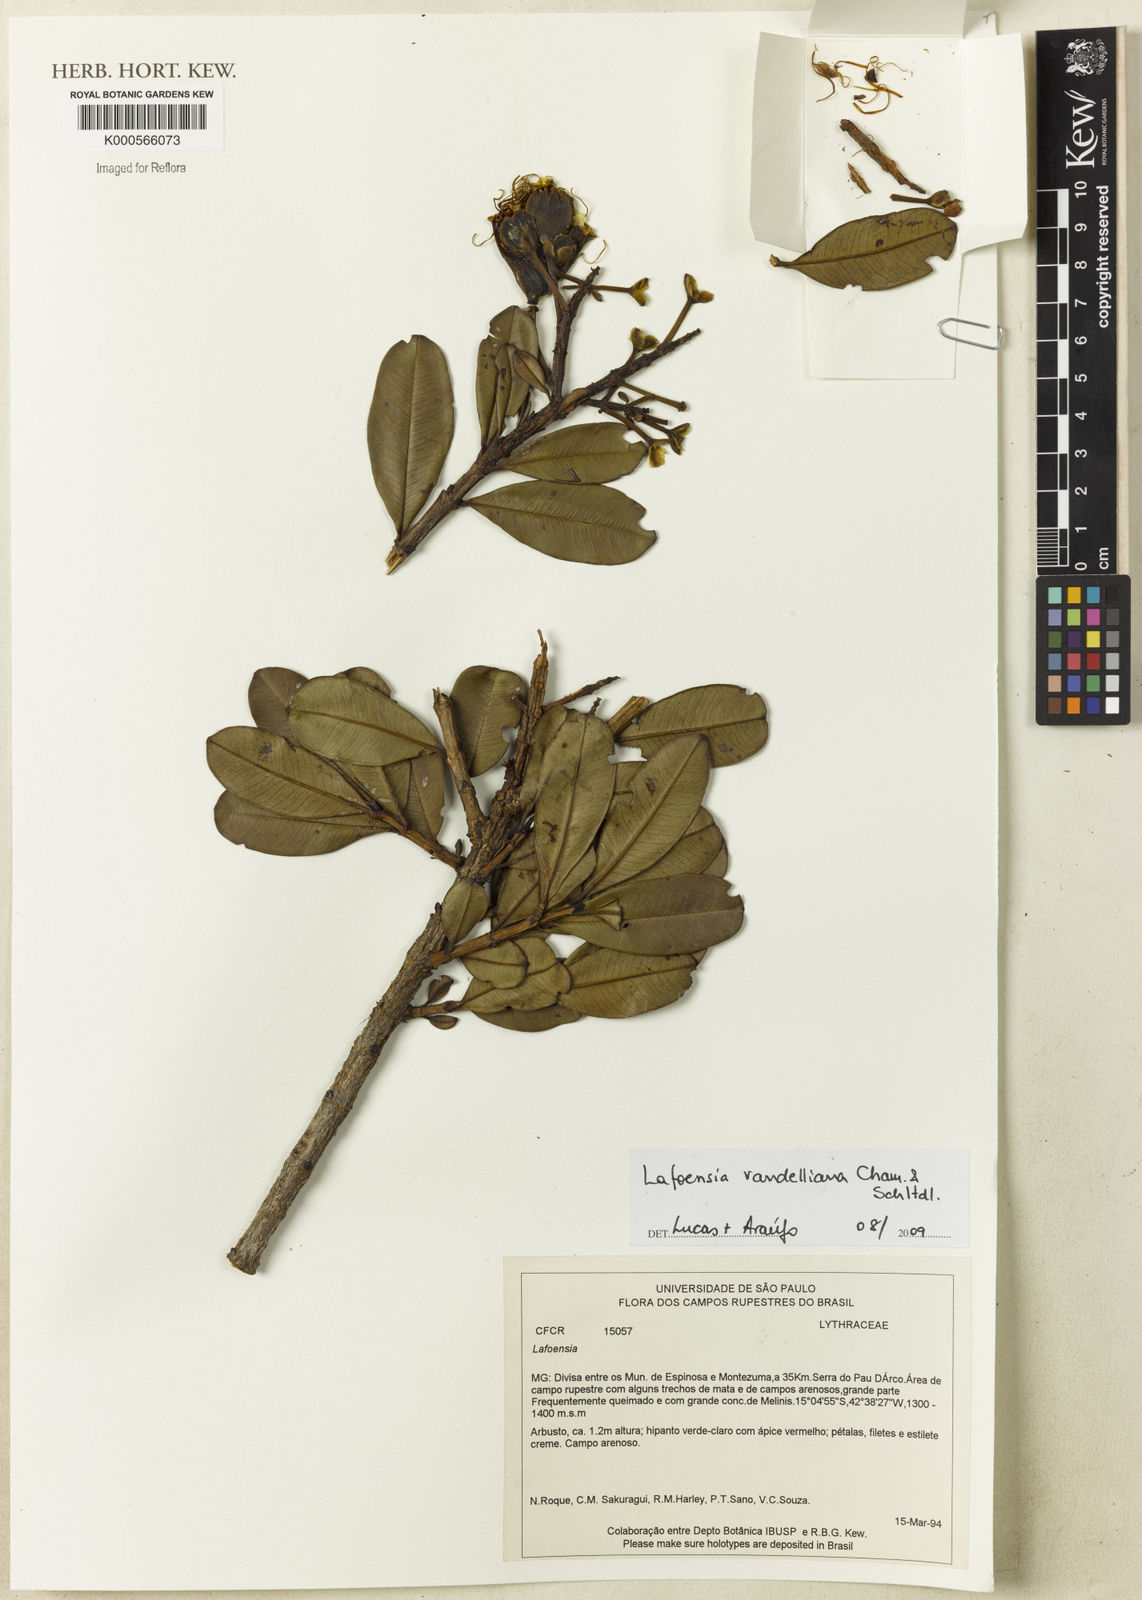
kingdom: Plantae
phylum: Tracheophyta
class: Magnoliopsida
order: Myrtales
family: Lythraceae
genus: Lafoensia
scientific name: Lafoensia
